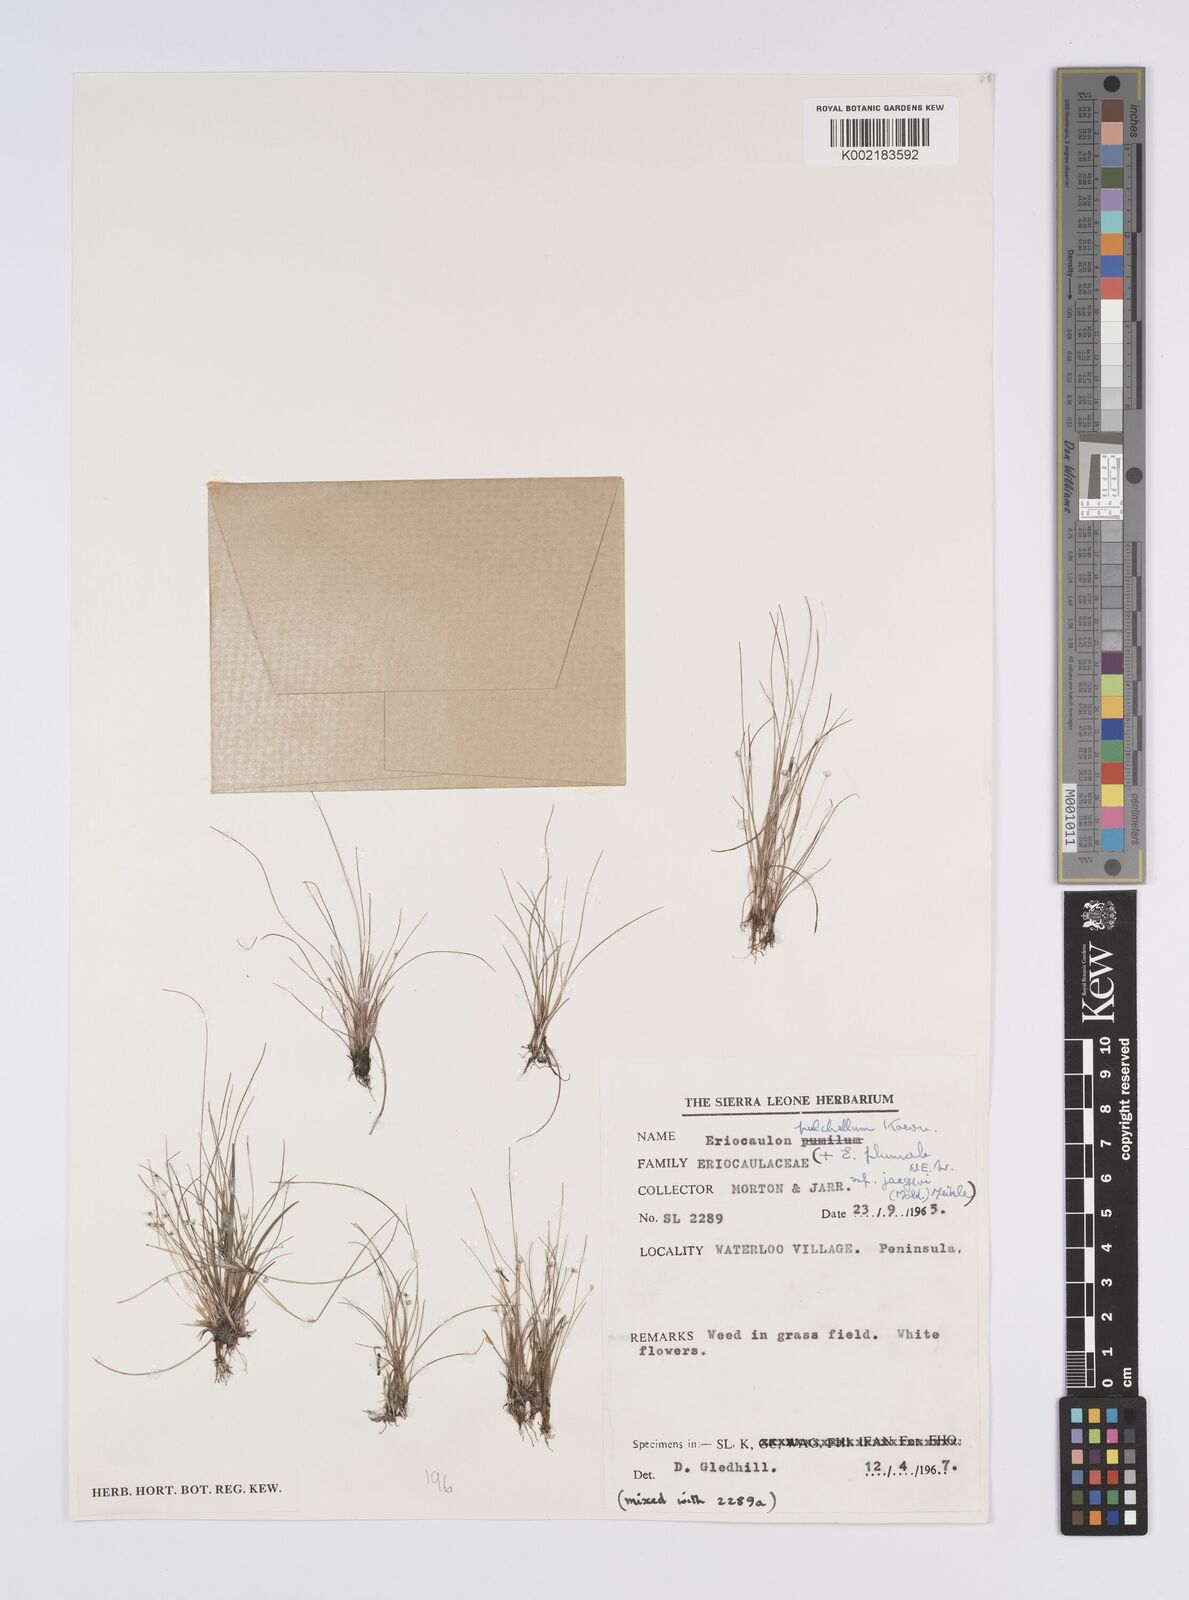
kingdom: Plantae
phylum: Tracheophyta
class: Liliopsida
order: Poales
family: Eriocaulaceae
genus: Eriocaulon
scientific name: Eriocaulon pulchellum
